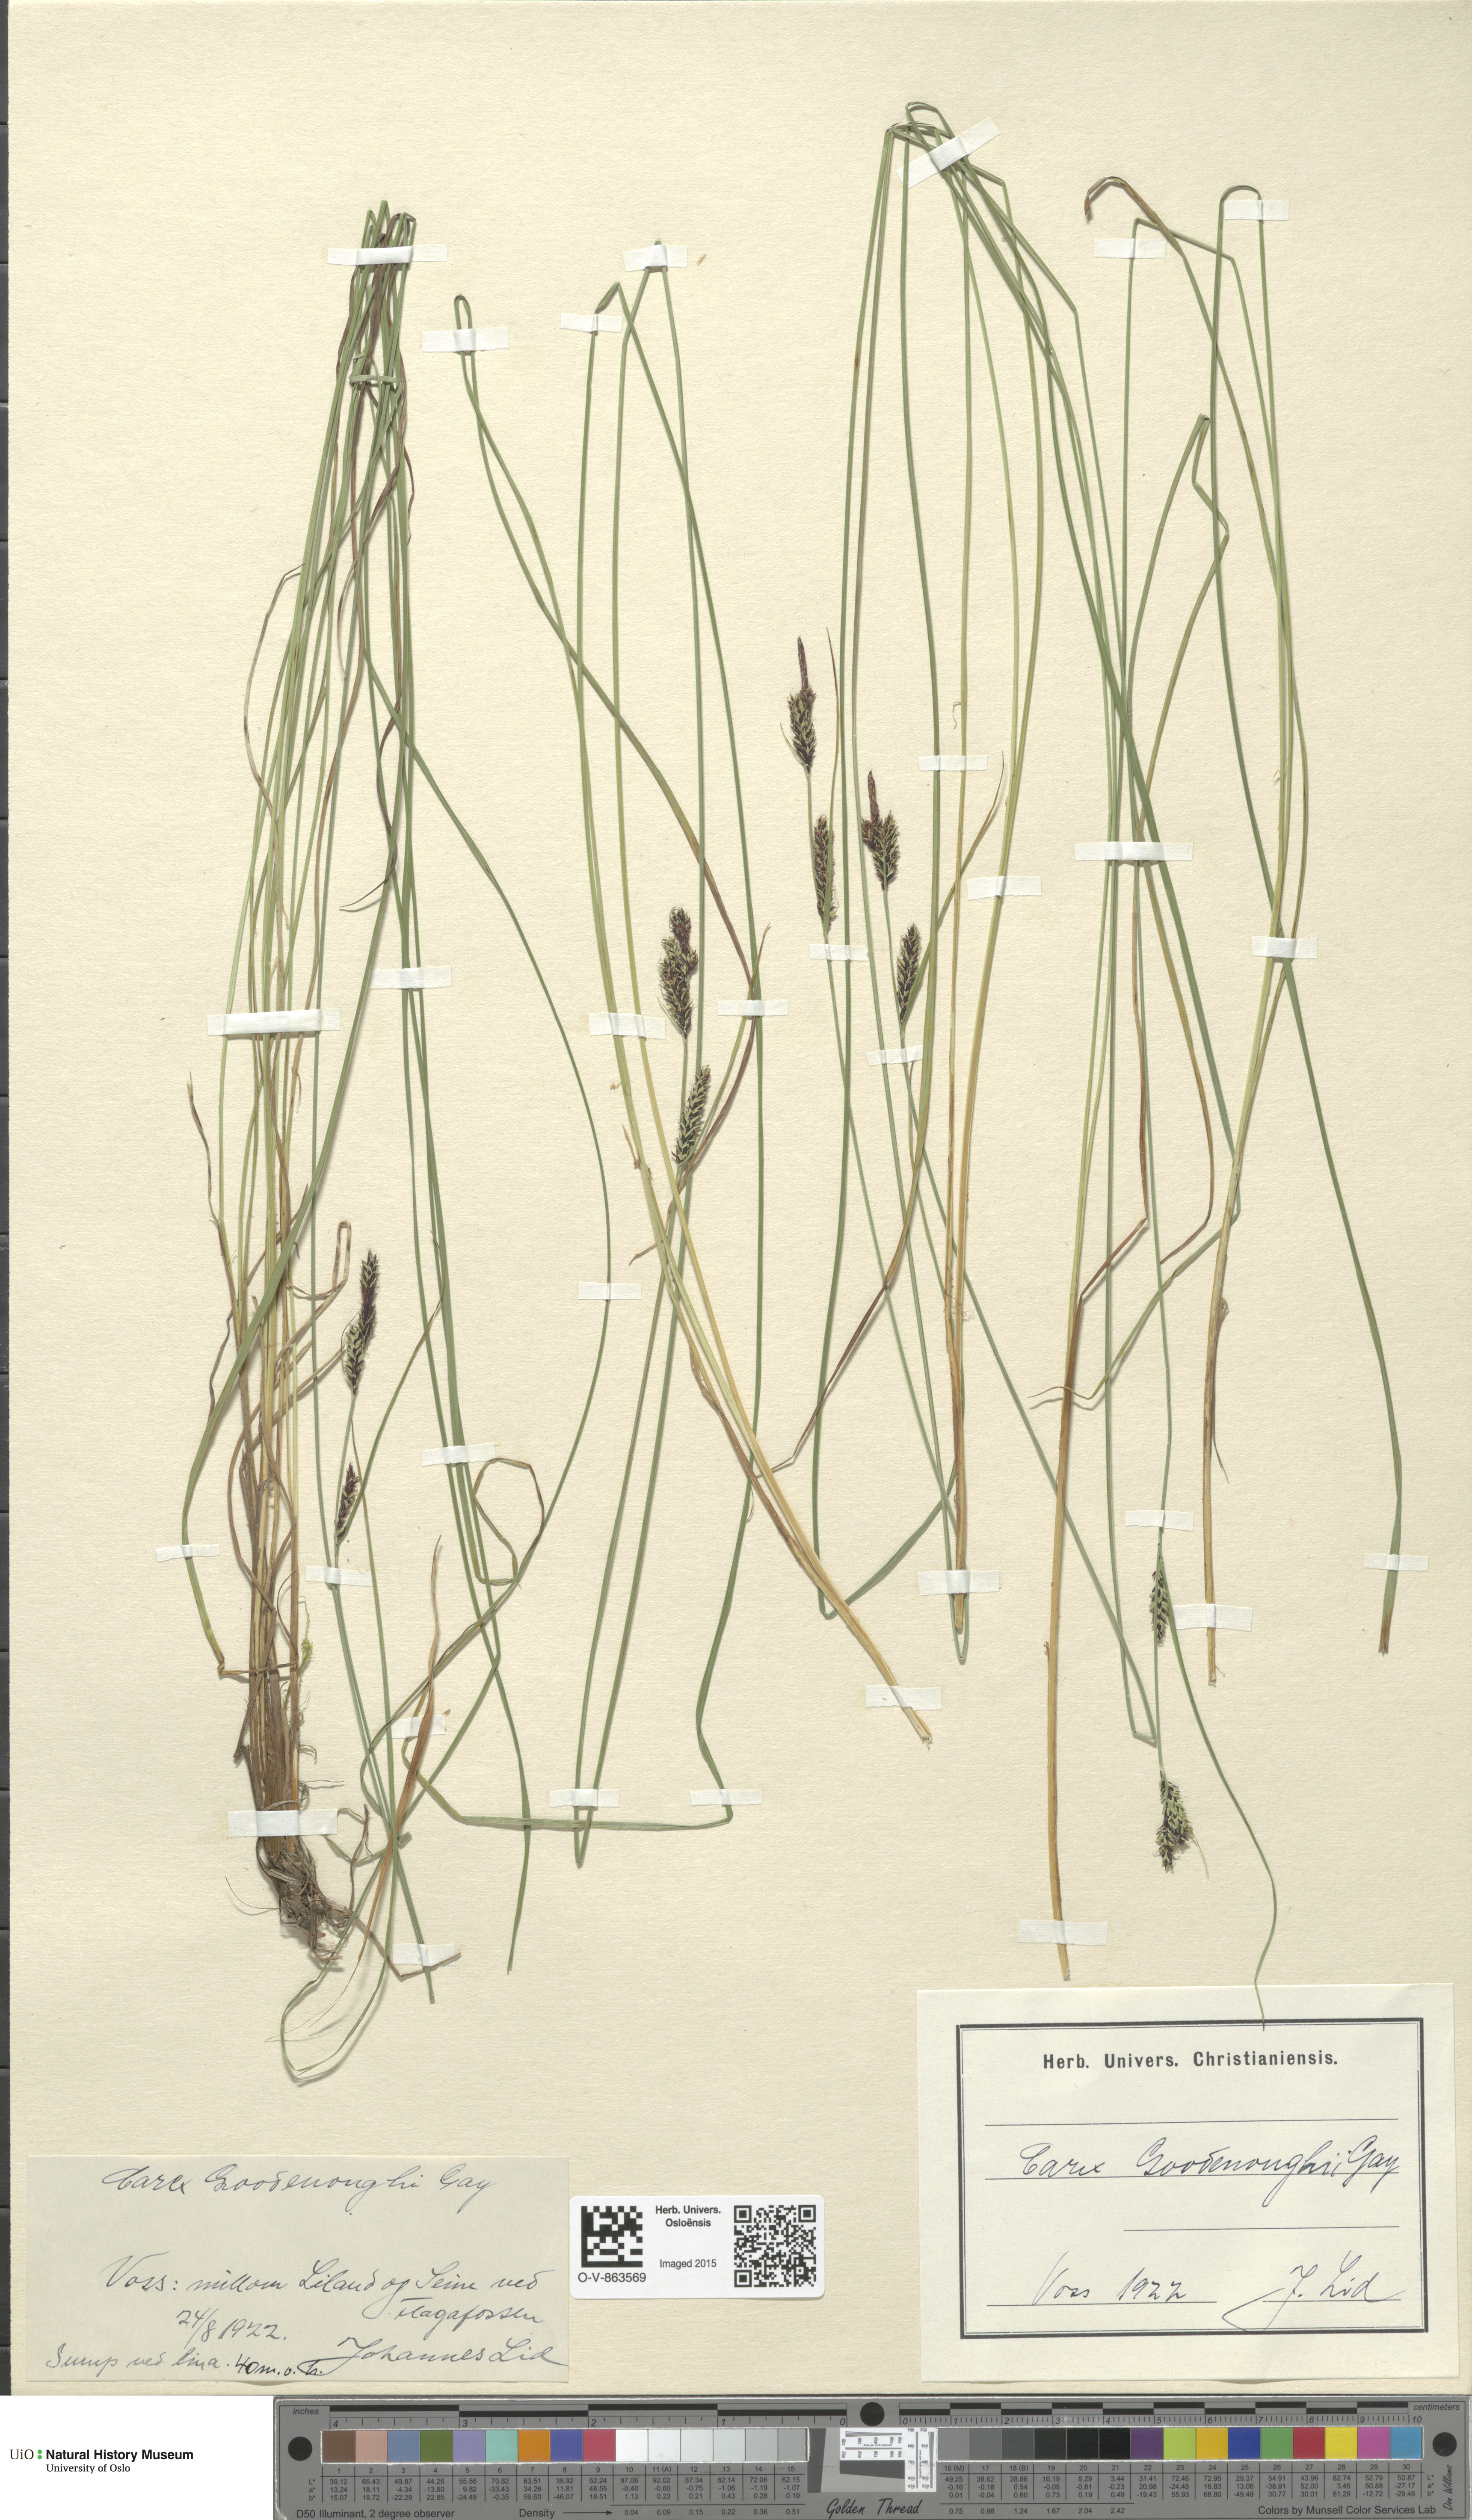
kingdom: Plantae
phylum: Tracheophyta
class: Liliopsida
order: Poales
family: Cyperaceae
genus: Carex
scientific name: Carex nigra
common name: Common sedge
